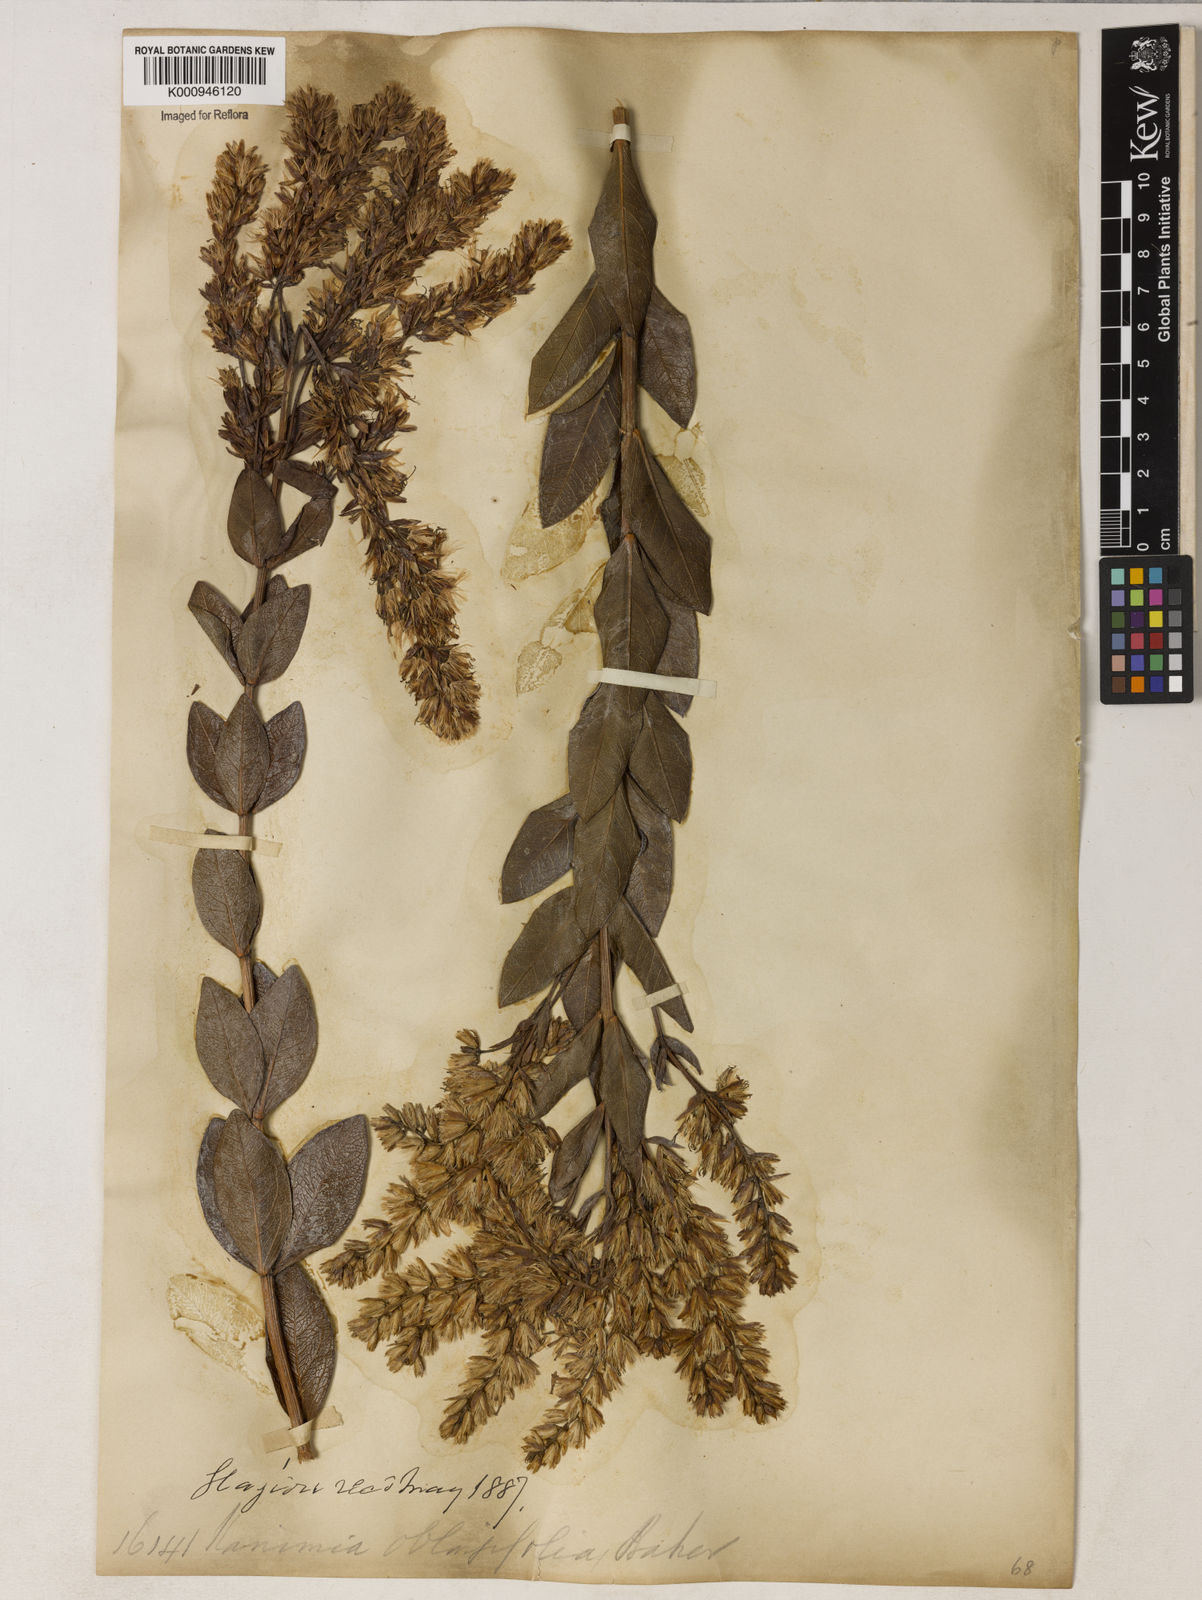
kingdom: Plantae
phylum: Tracheophyta
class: Magnoliopsida
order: Asterales
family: Asteraceae
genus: Mikania
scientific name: Mikania oblongifolia
